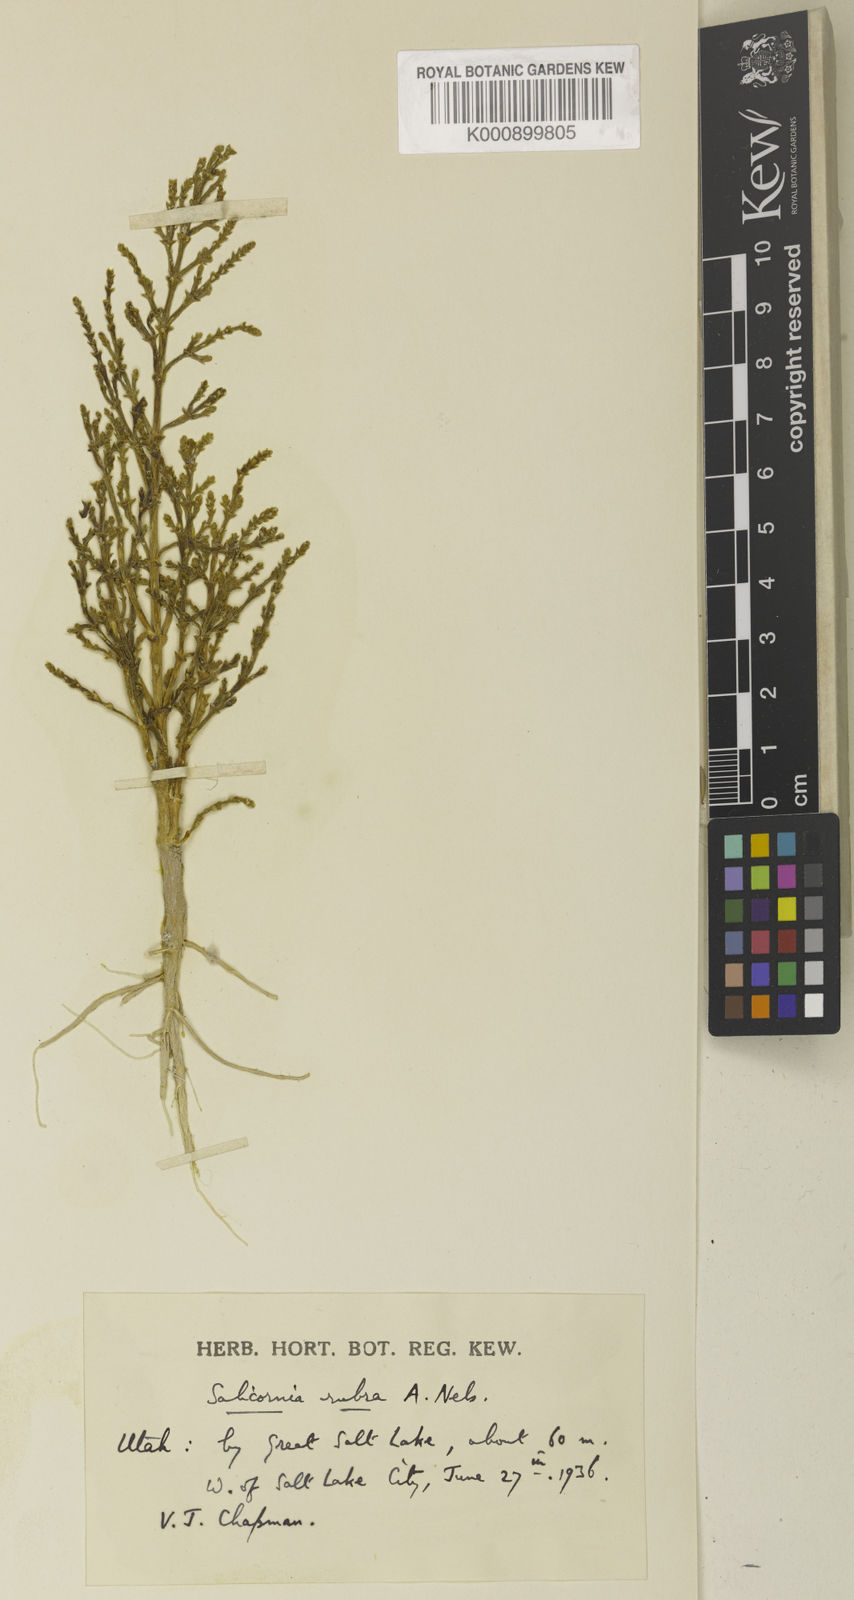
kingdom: Plantae
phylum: Tracheophyta
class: Magnoliopsida
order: Caryophyllales
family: Amaranthaceae
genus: Salicornia
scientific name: Salicornia rubra
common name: Red glasswort
